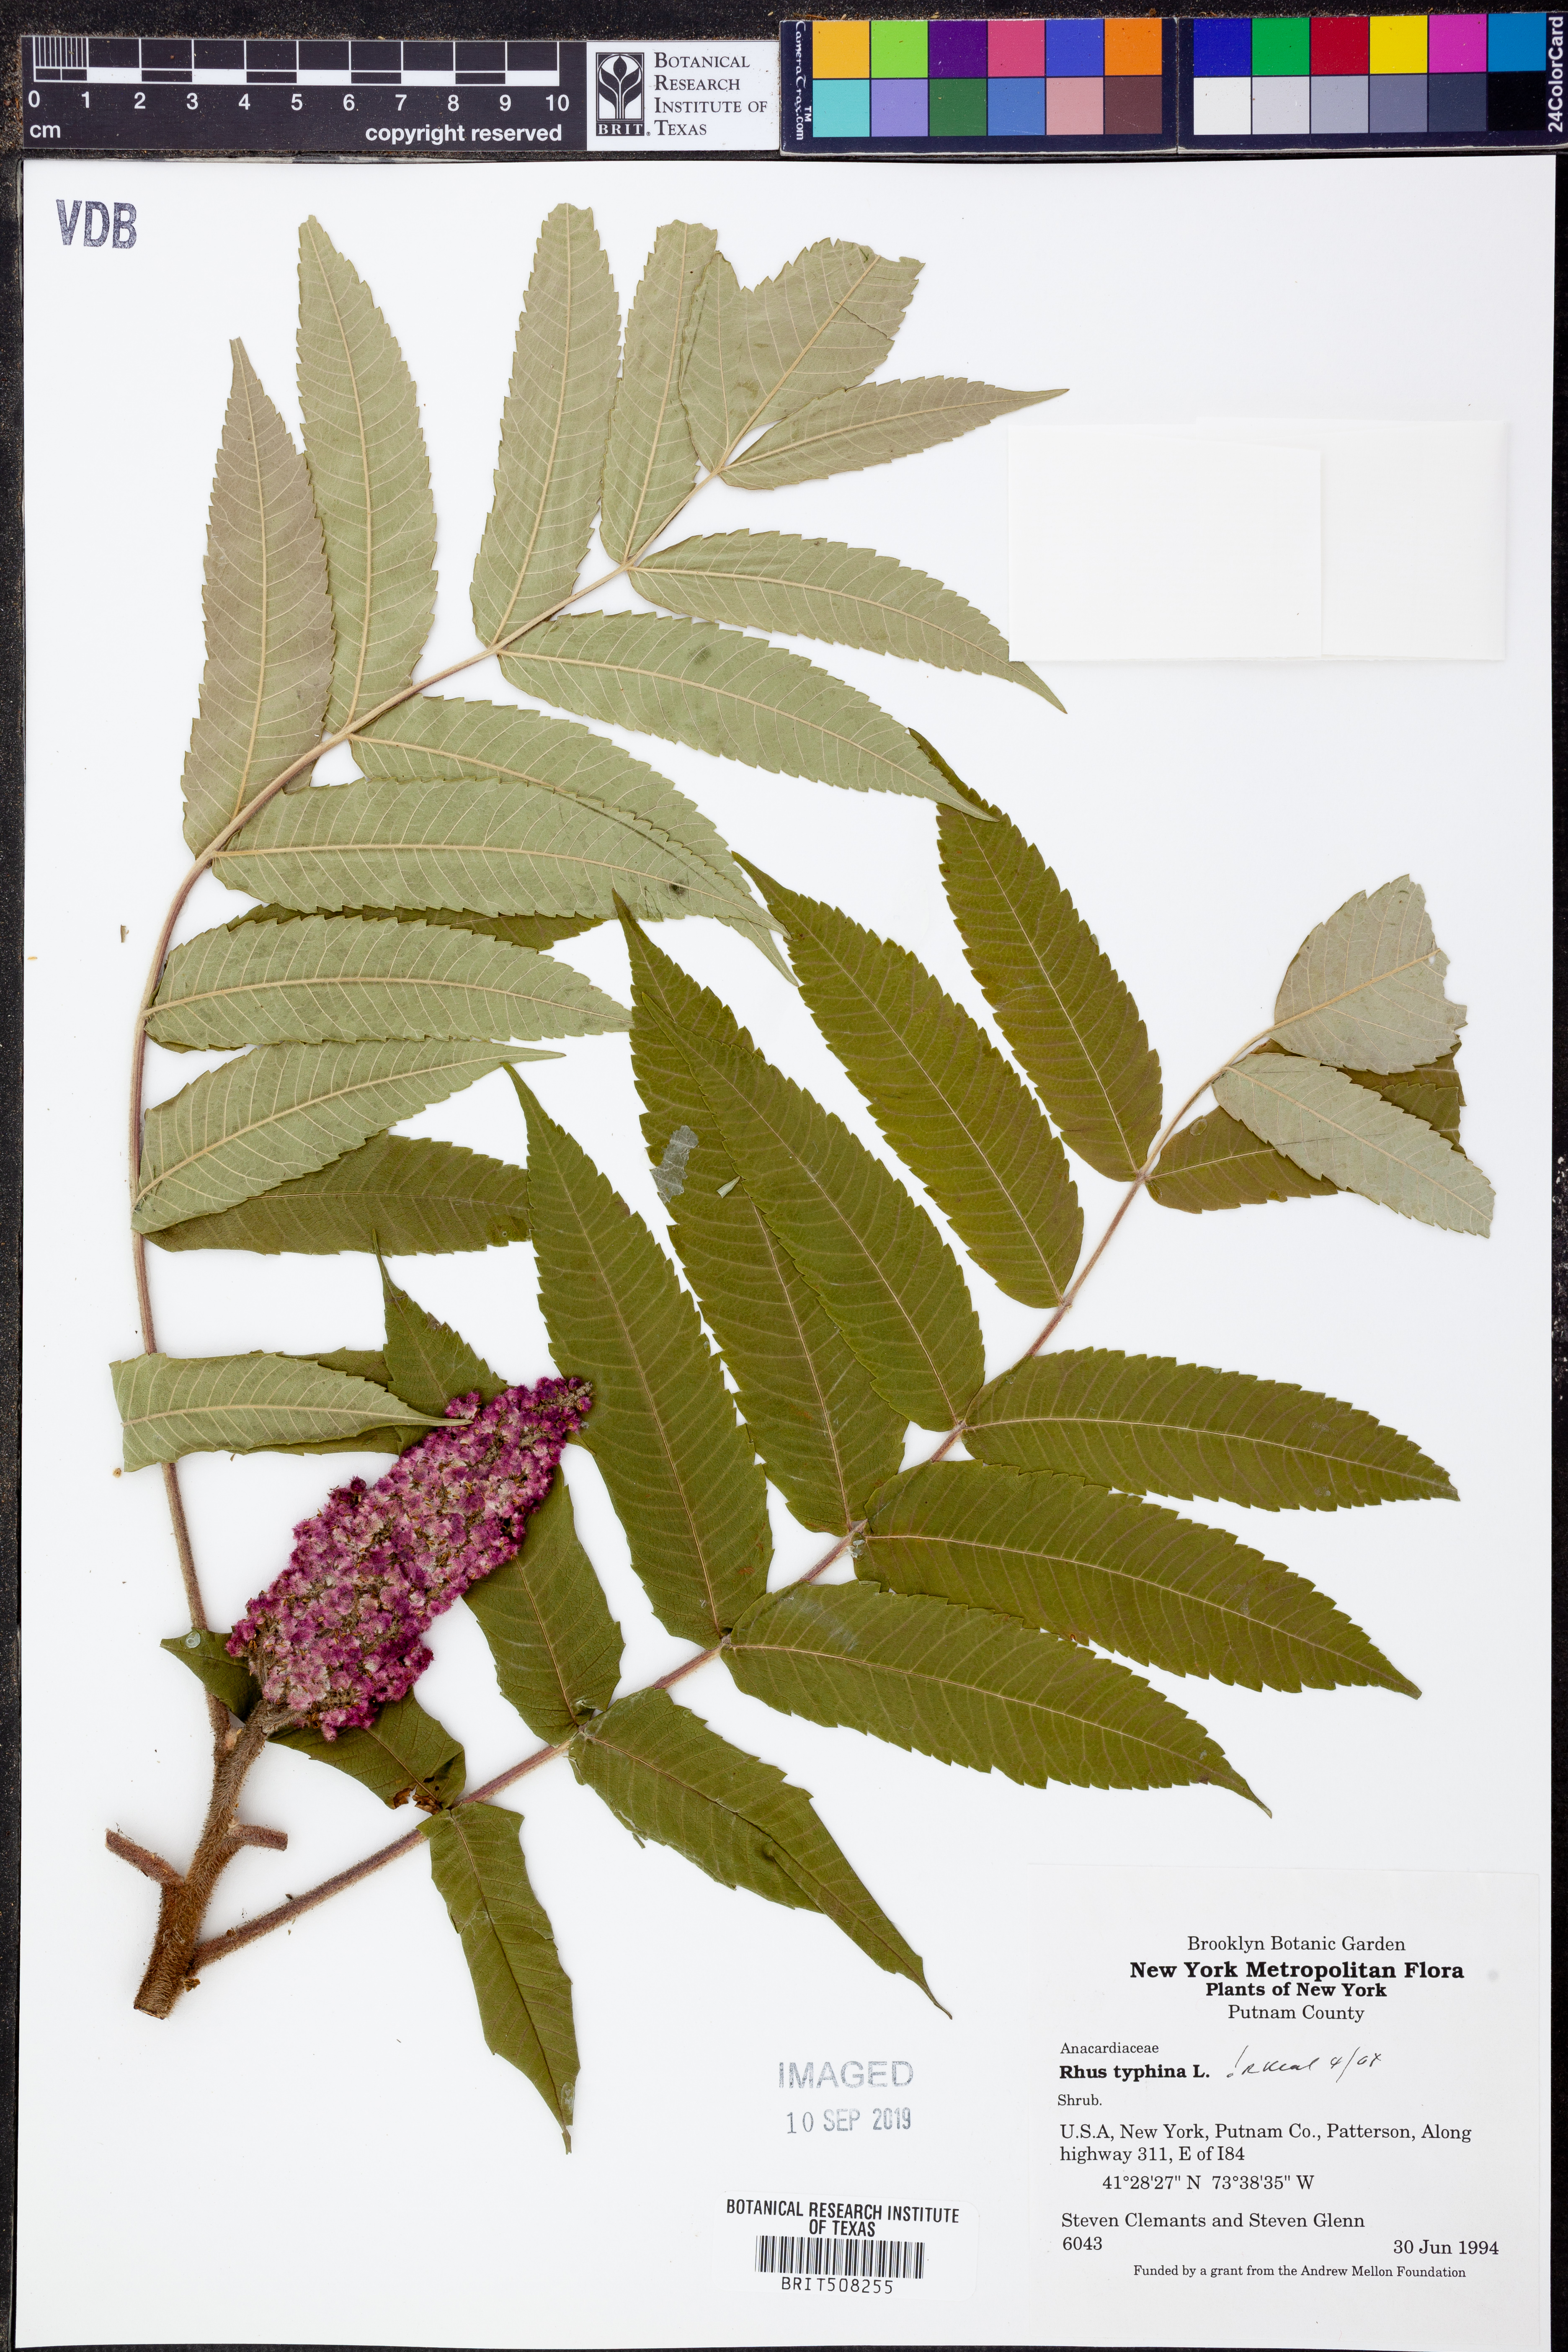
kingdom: Plantae
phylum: Tracheophyta
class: Magnoliopsida
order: Sapindales
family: Anacardiaceae
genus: Rhus
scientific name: Rhus typhina
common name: Staghorn sumac
